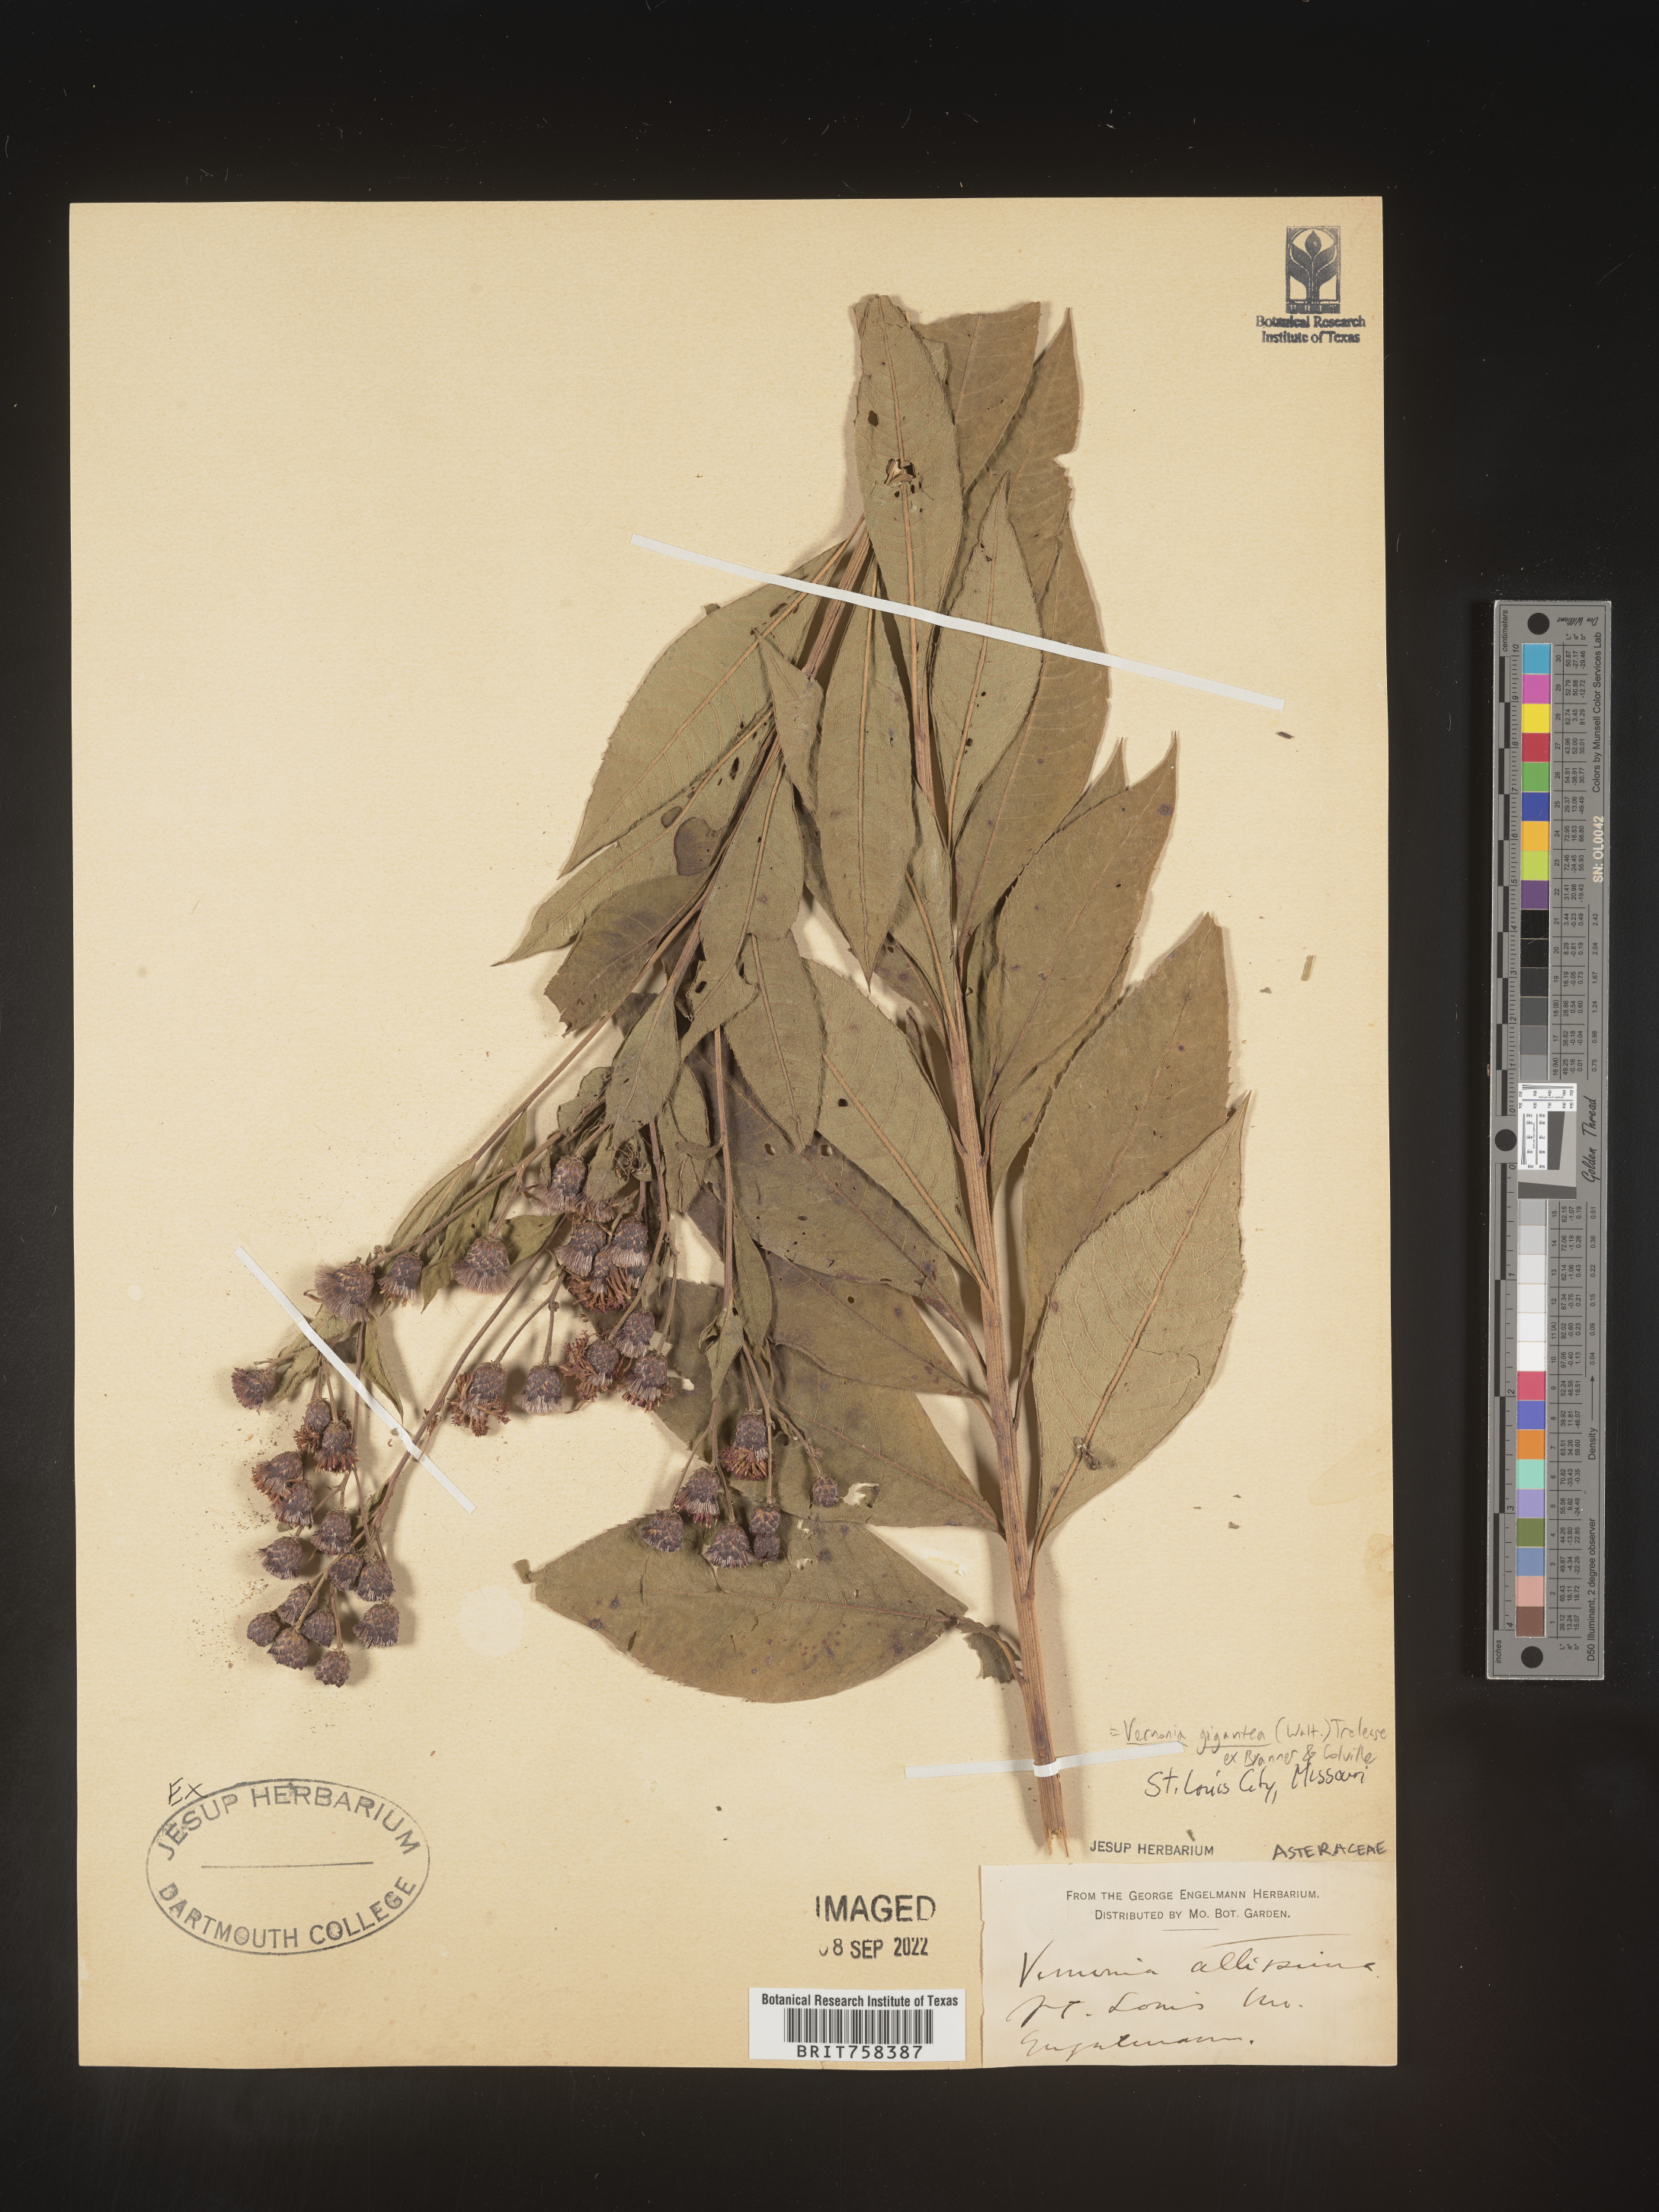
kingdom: Plantae
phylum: Tracheophyta
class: Magnoliopsida
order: Asterales
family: Asteraceae
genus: Vernonia
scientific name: Vernonia gigantea
